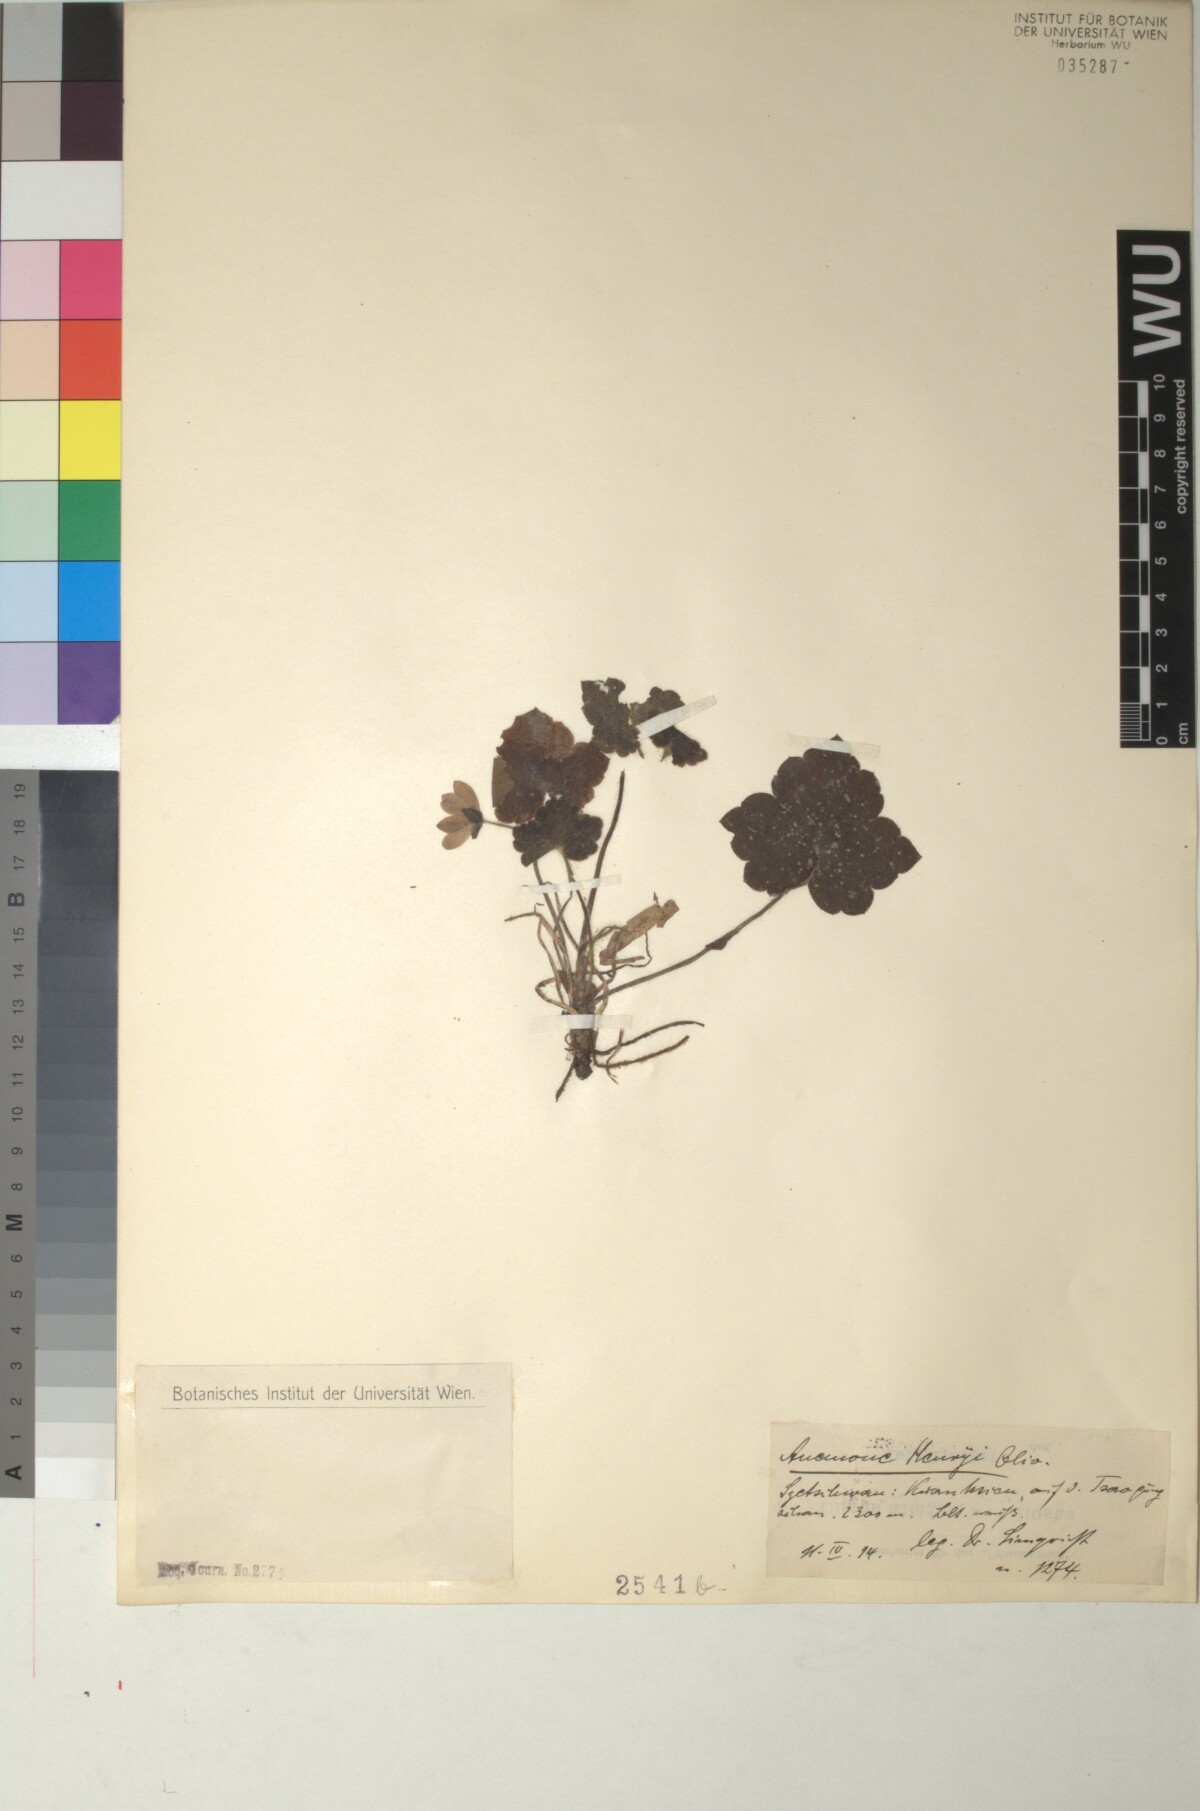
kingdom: Plantae
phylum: Tracheophyta
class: Magnoliopsida
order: Ranunculales
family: Ranunculaceae
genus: Hepatica
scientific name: Hepatica henryi
